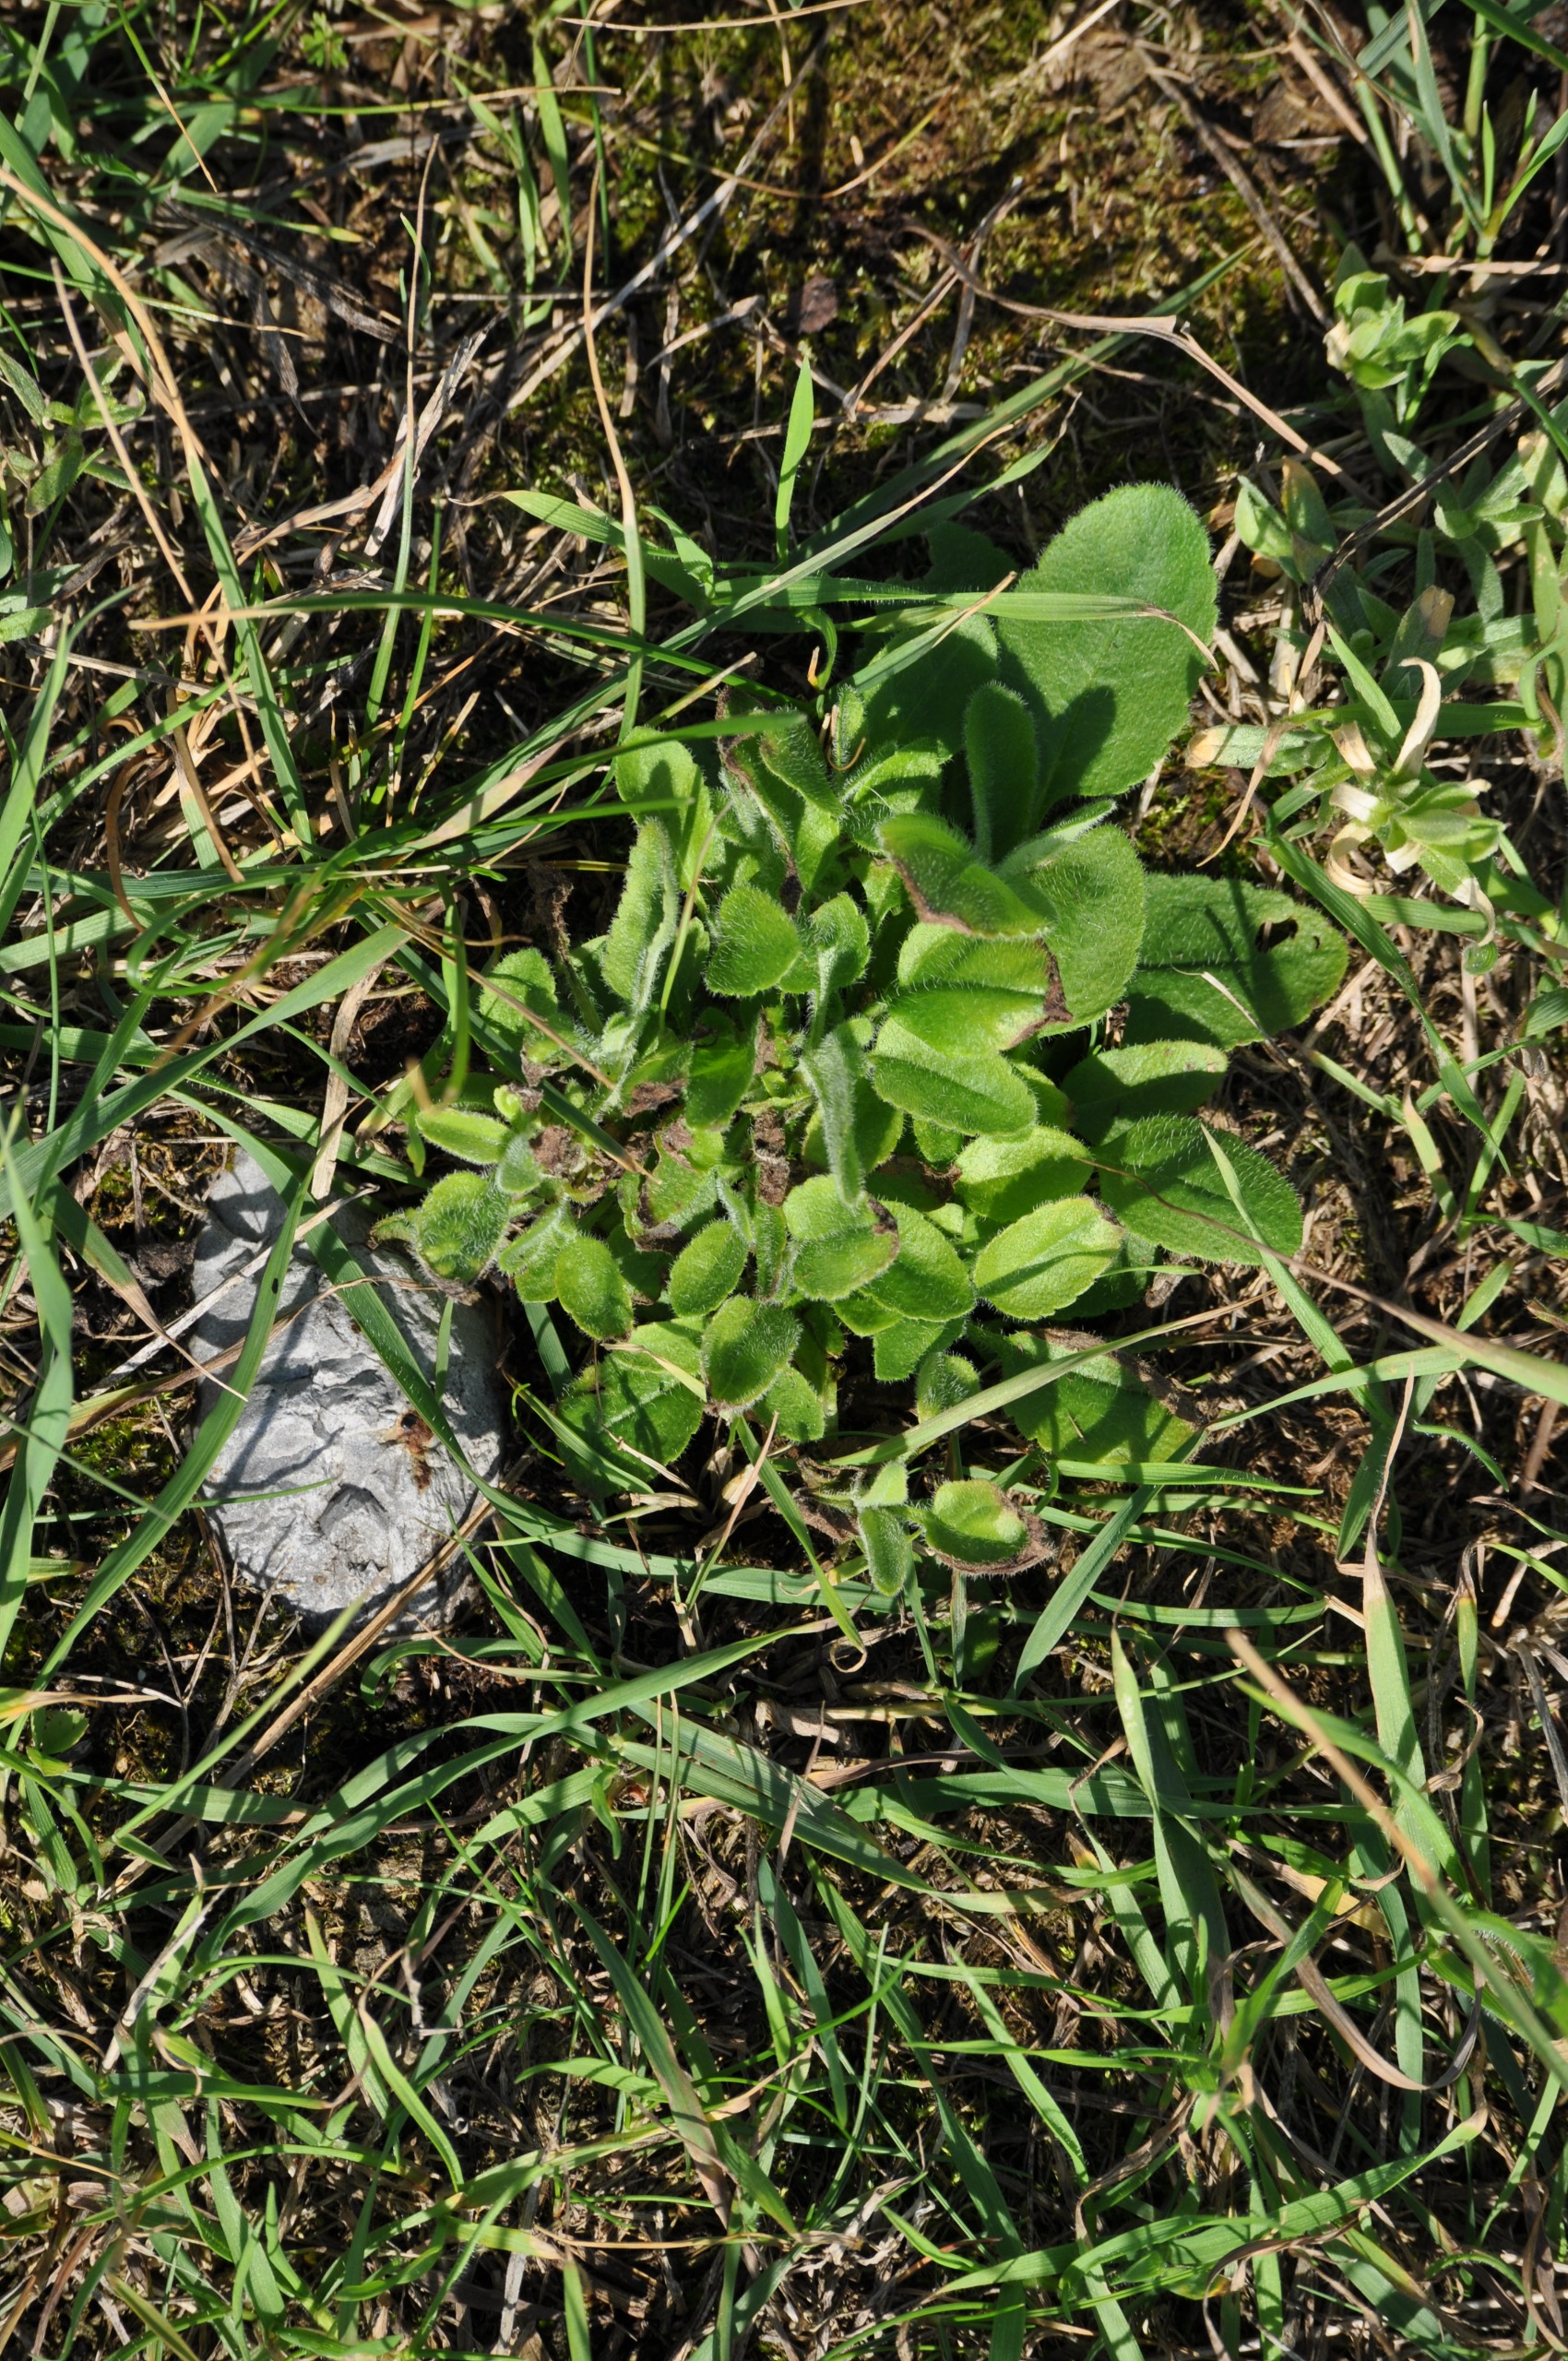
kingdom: Plantae
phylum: Tracheophyta
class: Magnoliopsida
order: Lamiales
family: Plantaginaceae
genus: Veronica
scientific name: Veronica spicata
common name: Aks-ærenpris
